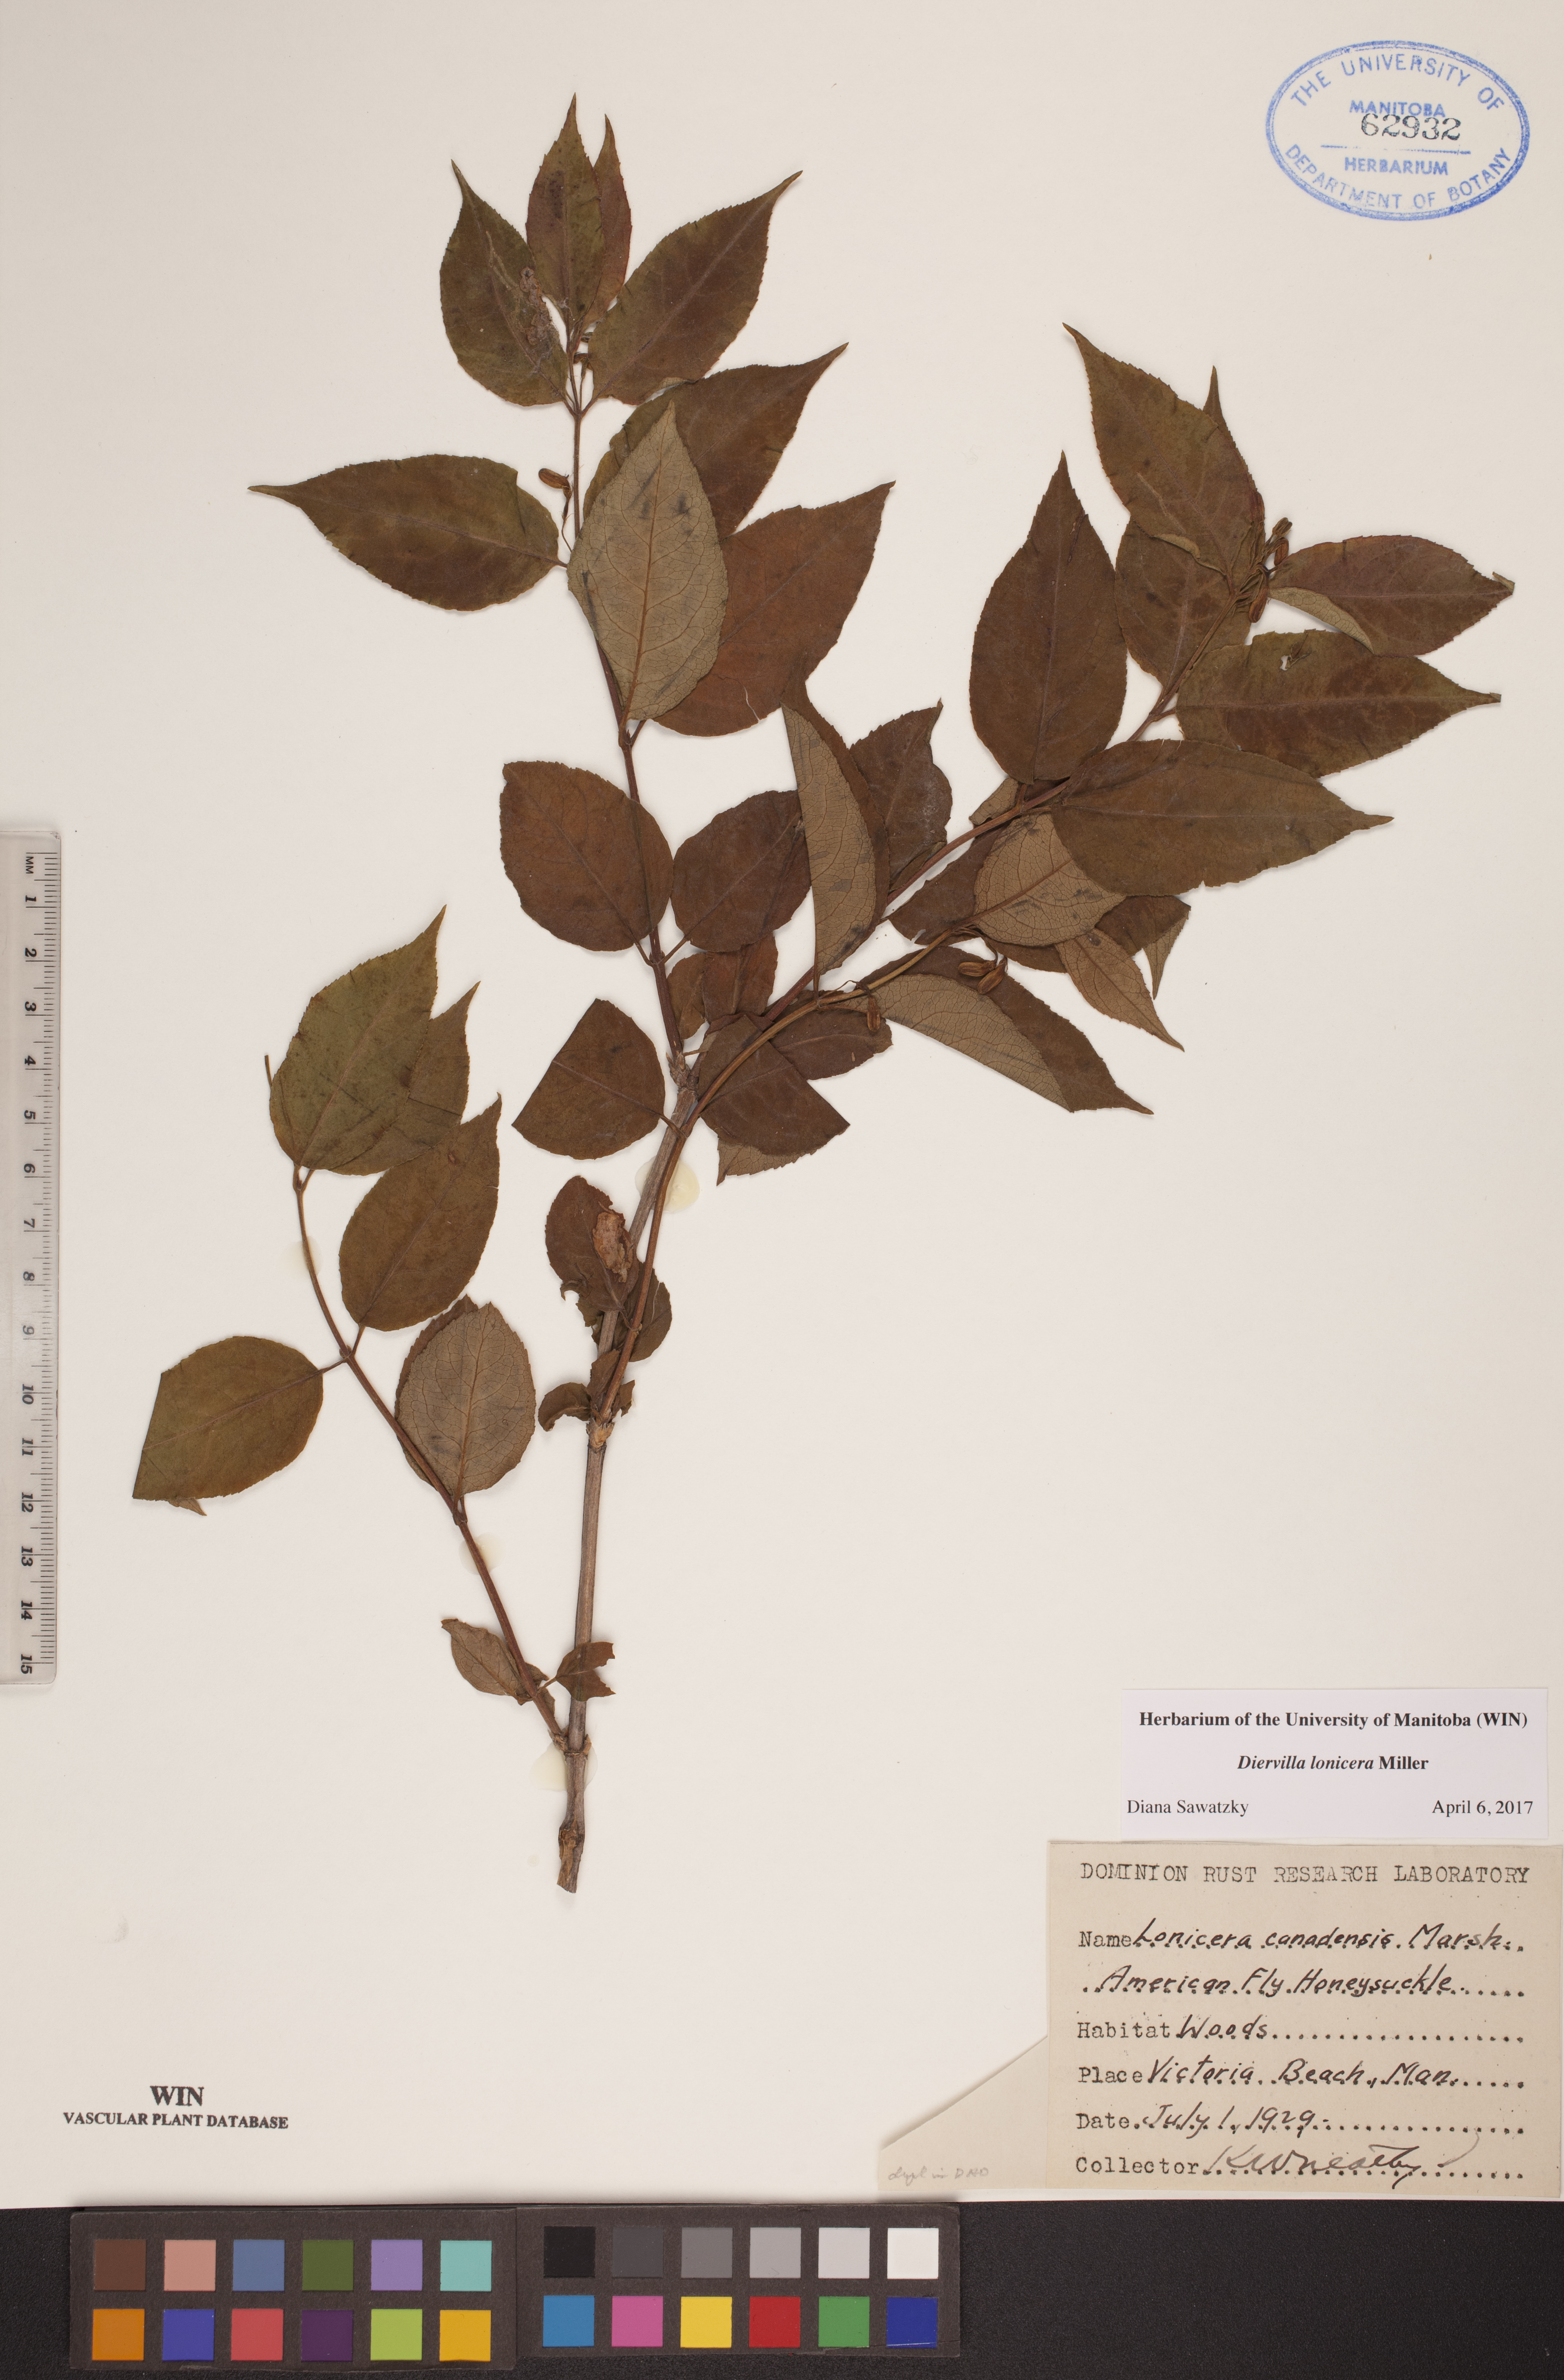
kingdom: Plantae
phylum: Tracheophyta
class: Magnoliopsida
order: Dipsacales
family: Caprifoliaceae
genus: Diervilla
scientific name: Diervilla lonicera
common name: Bush-honeysuckle
